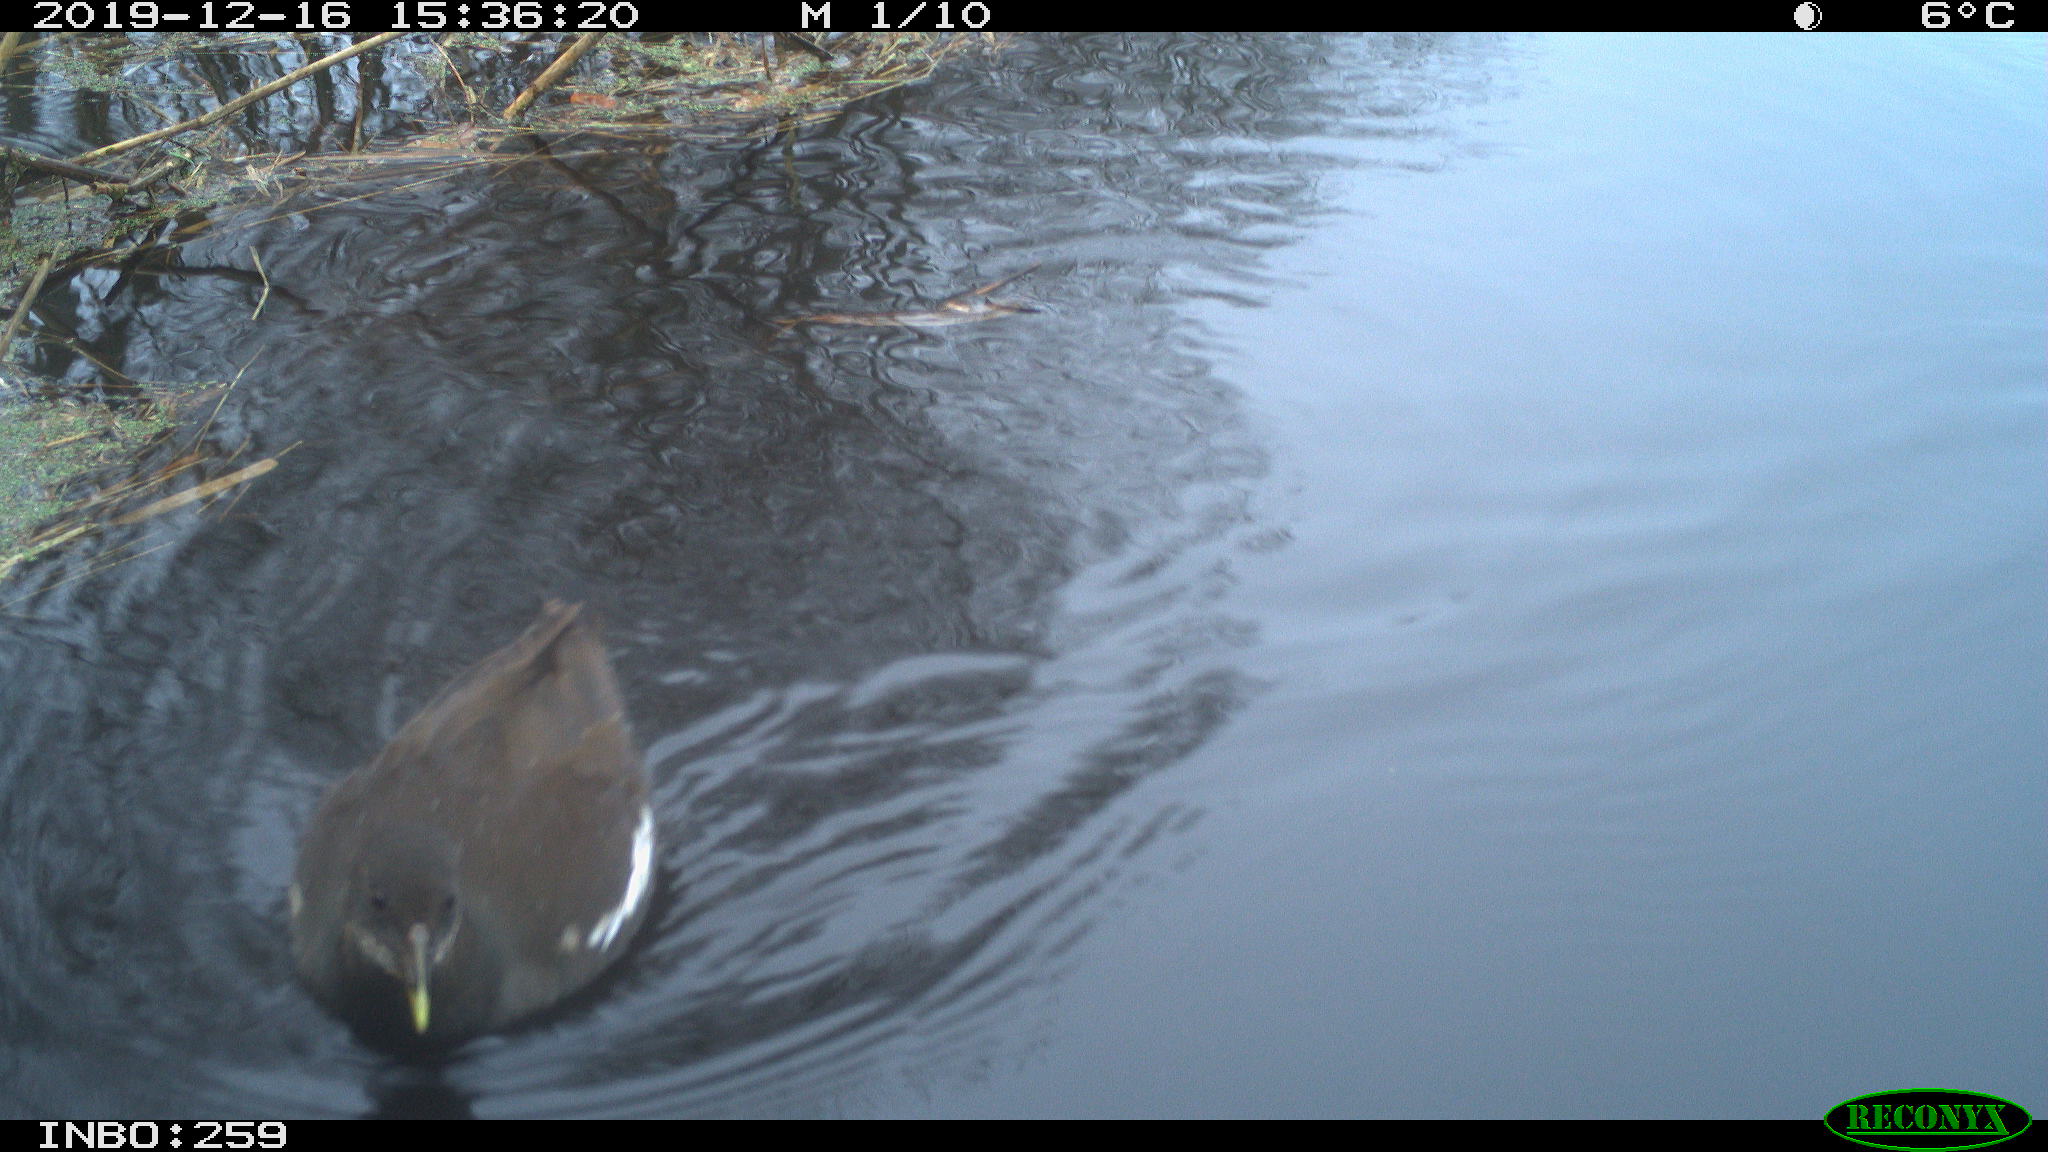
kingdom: Animalia
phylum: Chordata
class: Aves
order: Gruiformes
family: Rallidae
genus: Gallinula
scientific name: Gallinula chloropus
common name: Common moorhen
